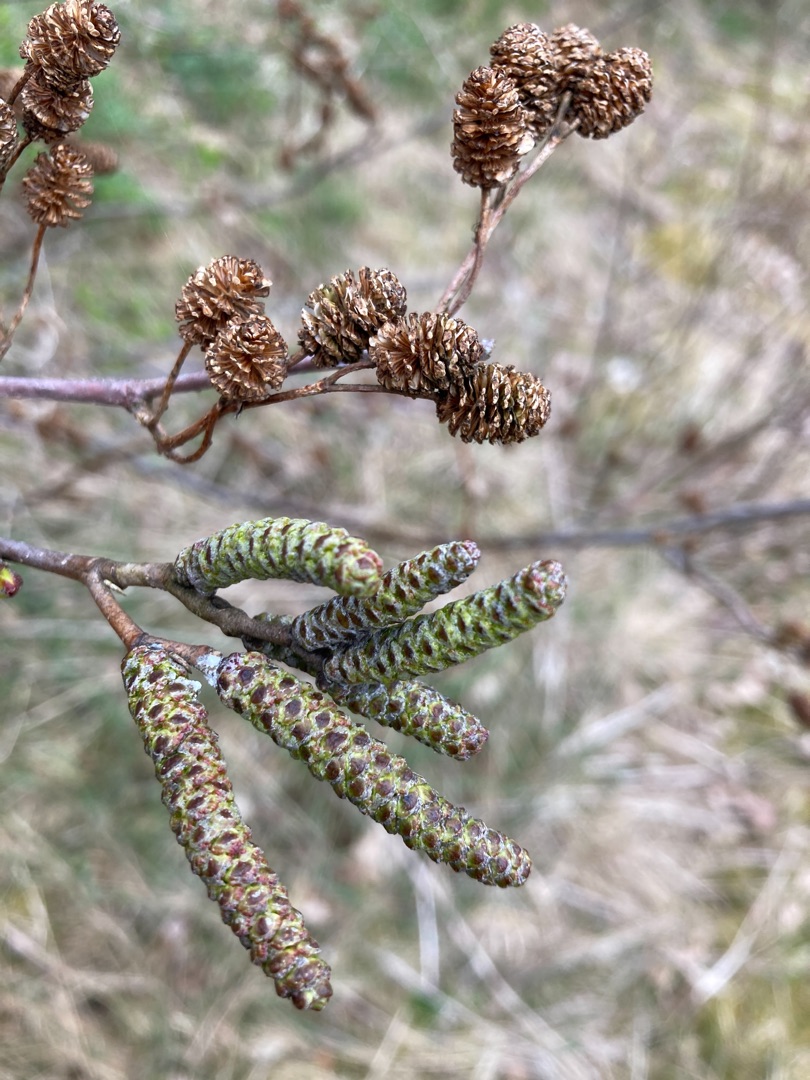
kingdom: Plantae
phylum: Tracheophyta
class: Magnoliopsida
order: Fagales
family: Betulaceae
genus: Alnus
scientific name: Alnus glutinosa
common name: Rød-el
